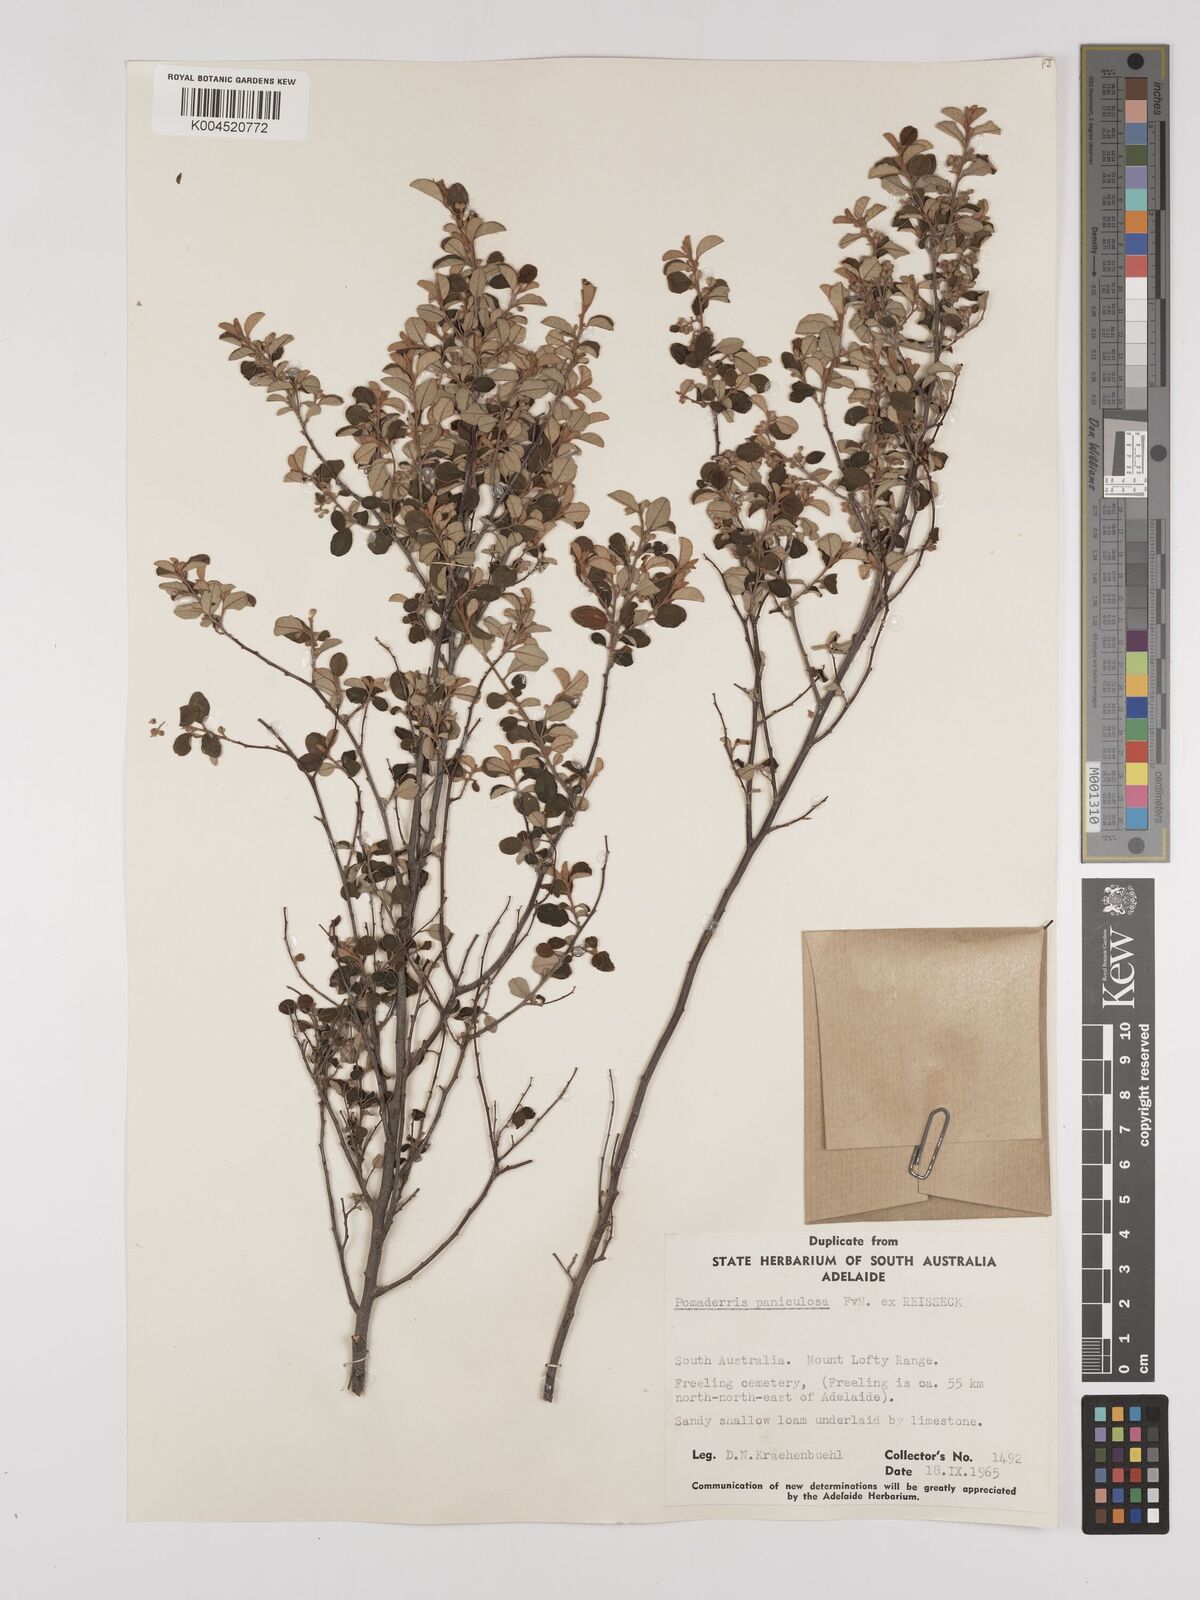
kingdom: Plantae
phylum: Tracheophyta
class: Magnoliopsida
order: Rosales
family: Rhamnaceae
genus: Pomaderris
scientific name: Pomaderris paniculosa
